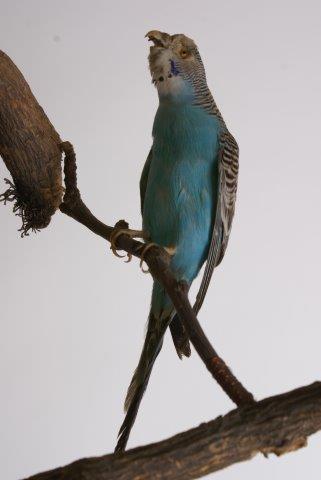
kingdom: Animalia
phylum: Chordata
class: Aves
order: Psittaciformes
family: Psittacidae
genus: Melopsittacus
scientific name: Melopsittacus undulatus
